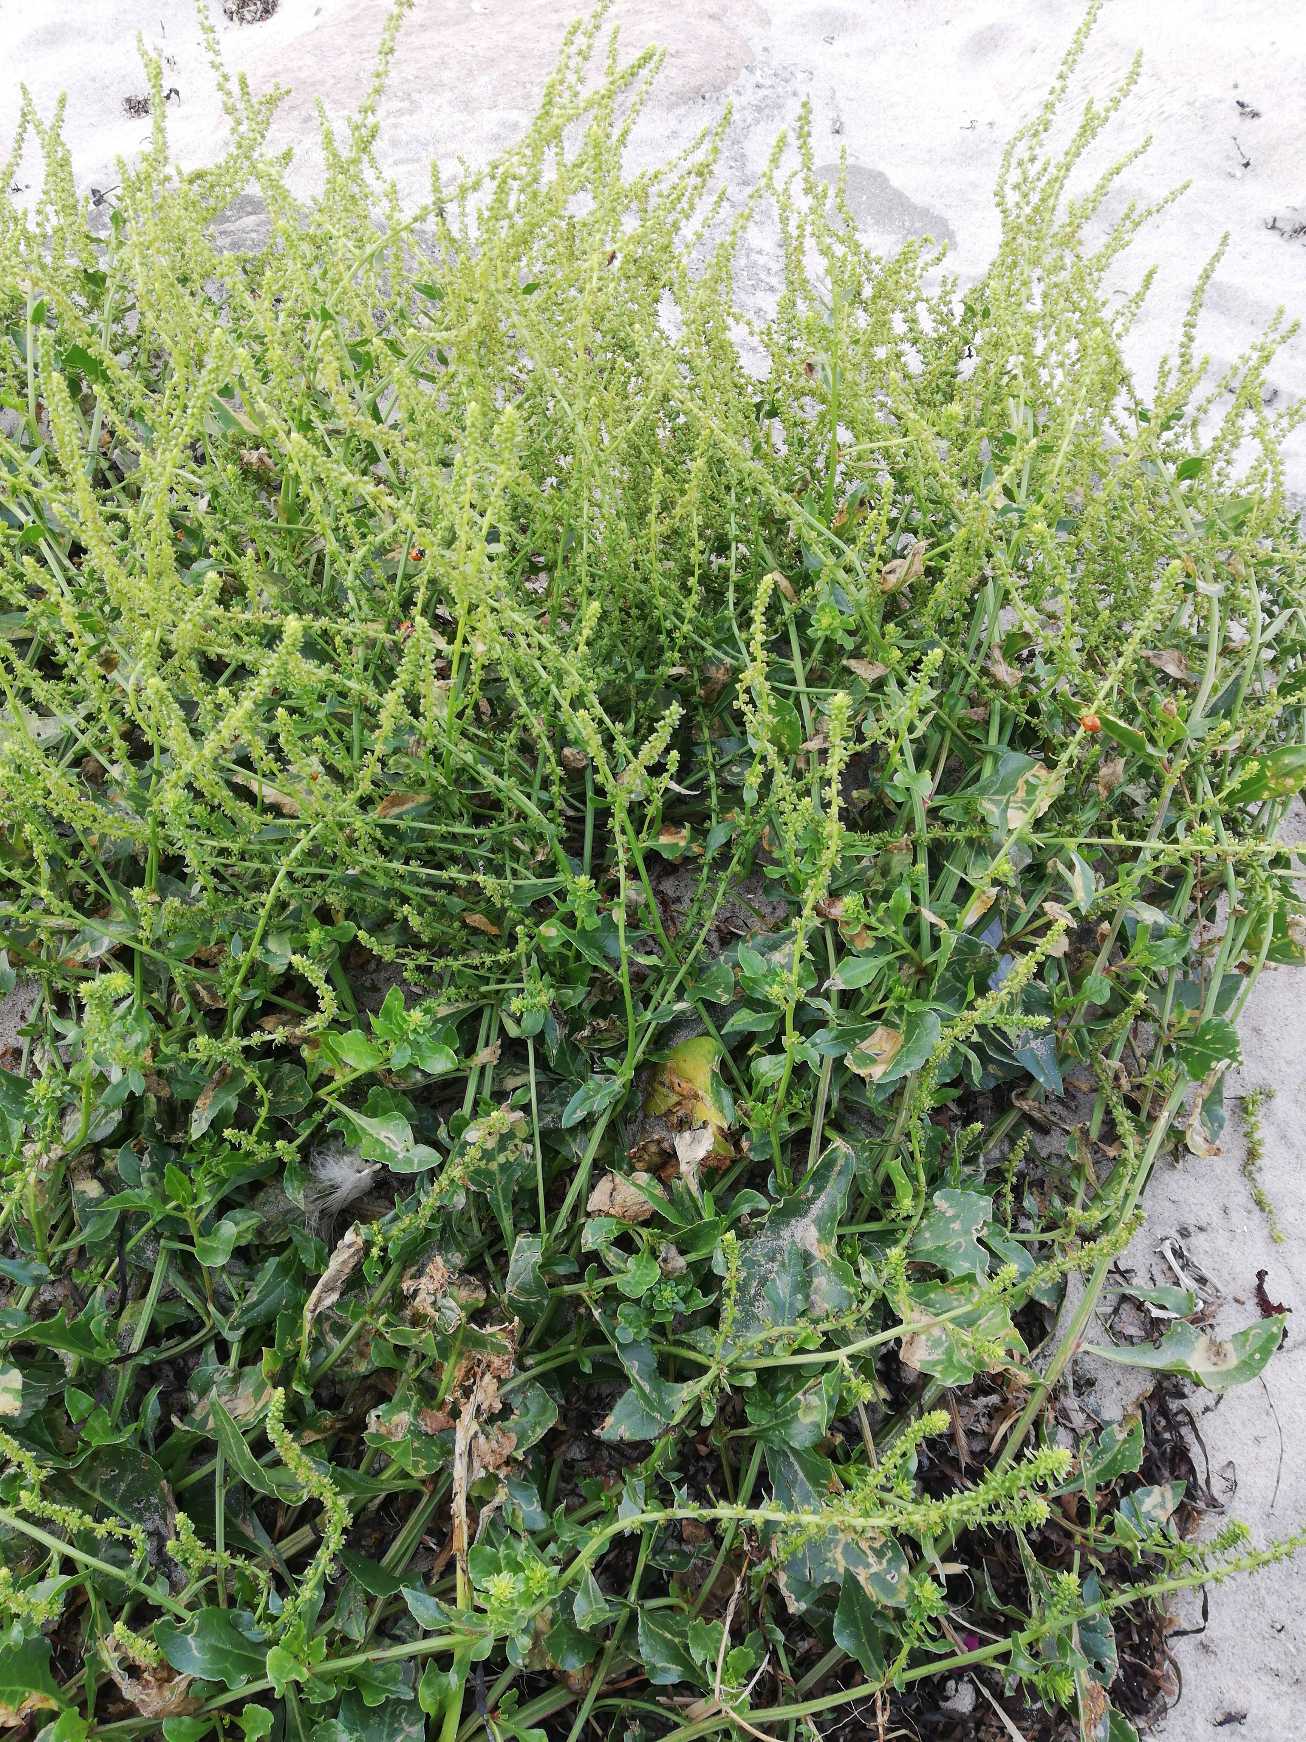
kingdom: Plantae
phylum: Tracheophyta
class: Magnoliopsida
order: Caryophyllales
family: Amaranthaceae
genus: Beta
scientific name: Beta maritima
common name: Strand-bede
